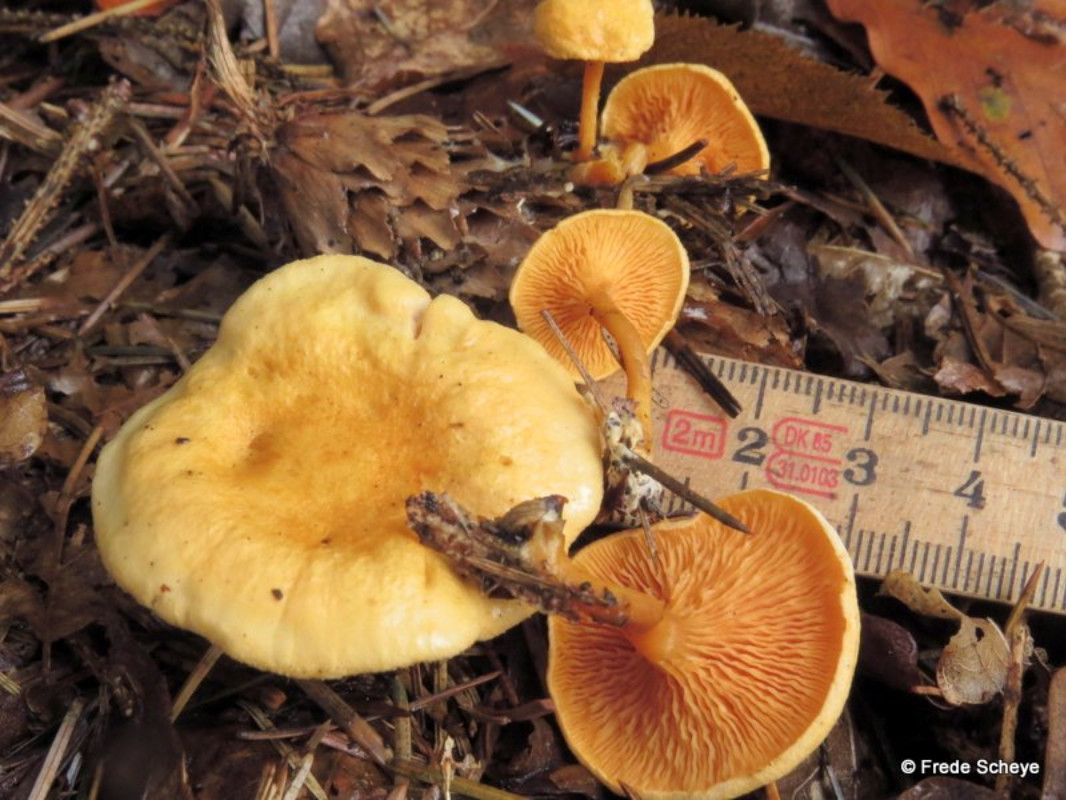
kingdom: Fungi
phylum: Basidiomycota
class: Agaricomycetes
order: Boletales
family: Hygrophoropsidaceae
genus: Hygrophoropsis
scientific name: Hygrophoropsis aurantiaca
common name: almindelig orangekantarel
